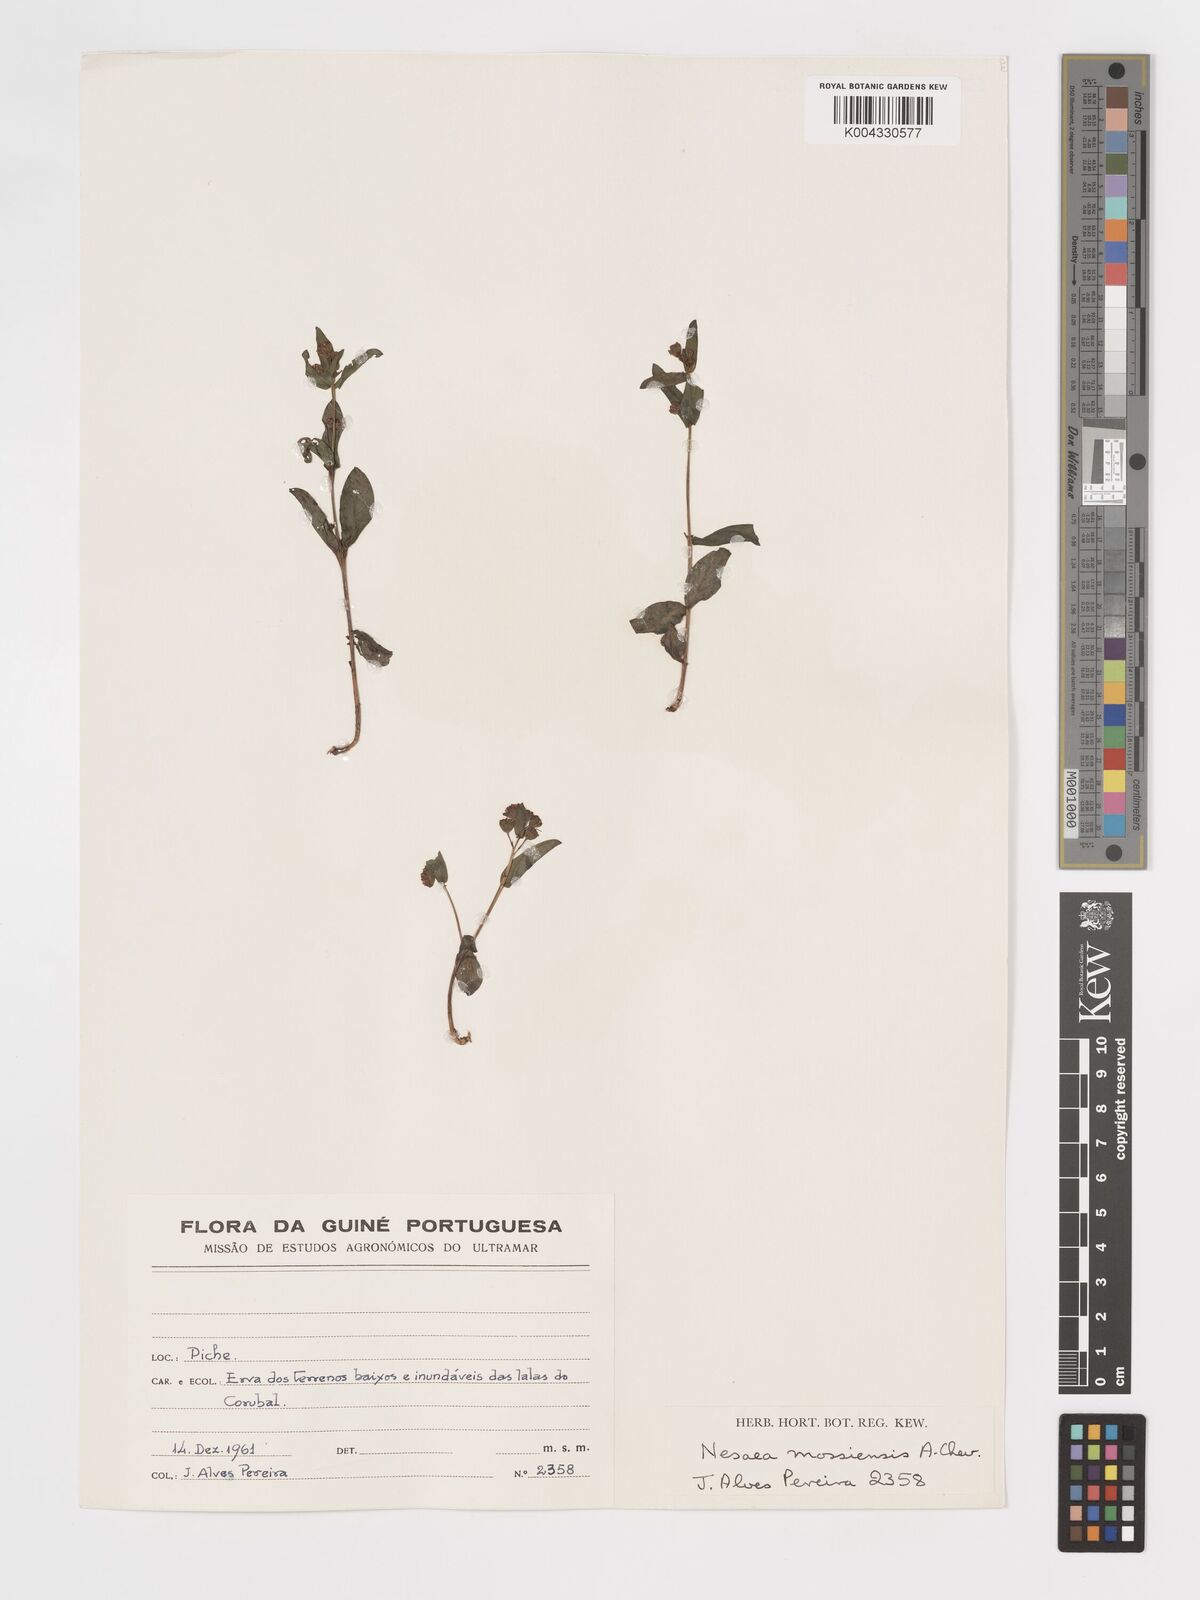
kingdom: Plantae
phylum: Tracheophyta
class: Magnoliopsida
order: Myrtales
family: Lythraceae
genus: Ammannia
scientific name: Ammannia angustifolia
